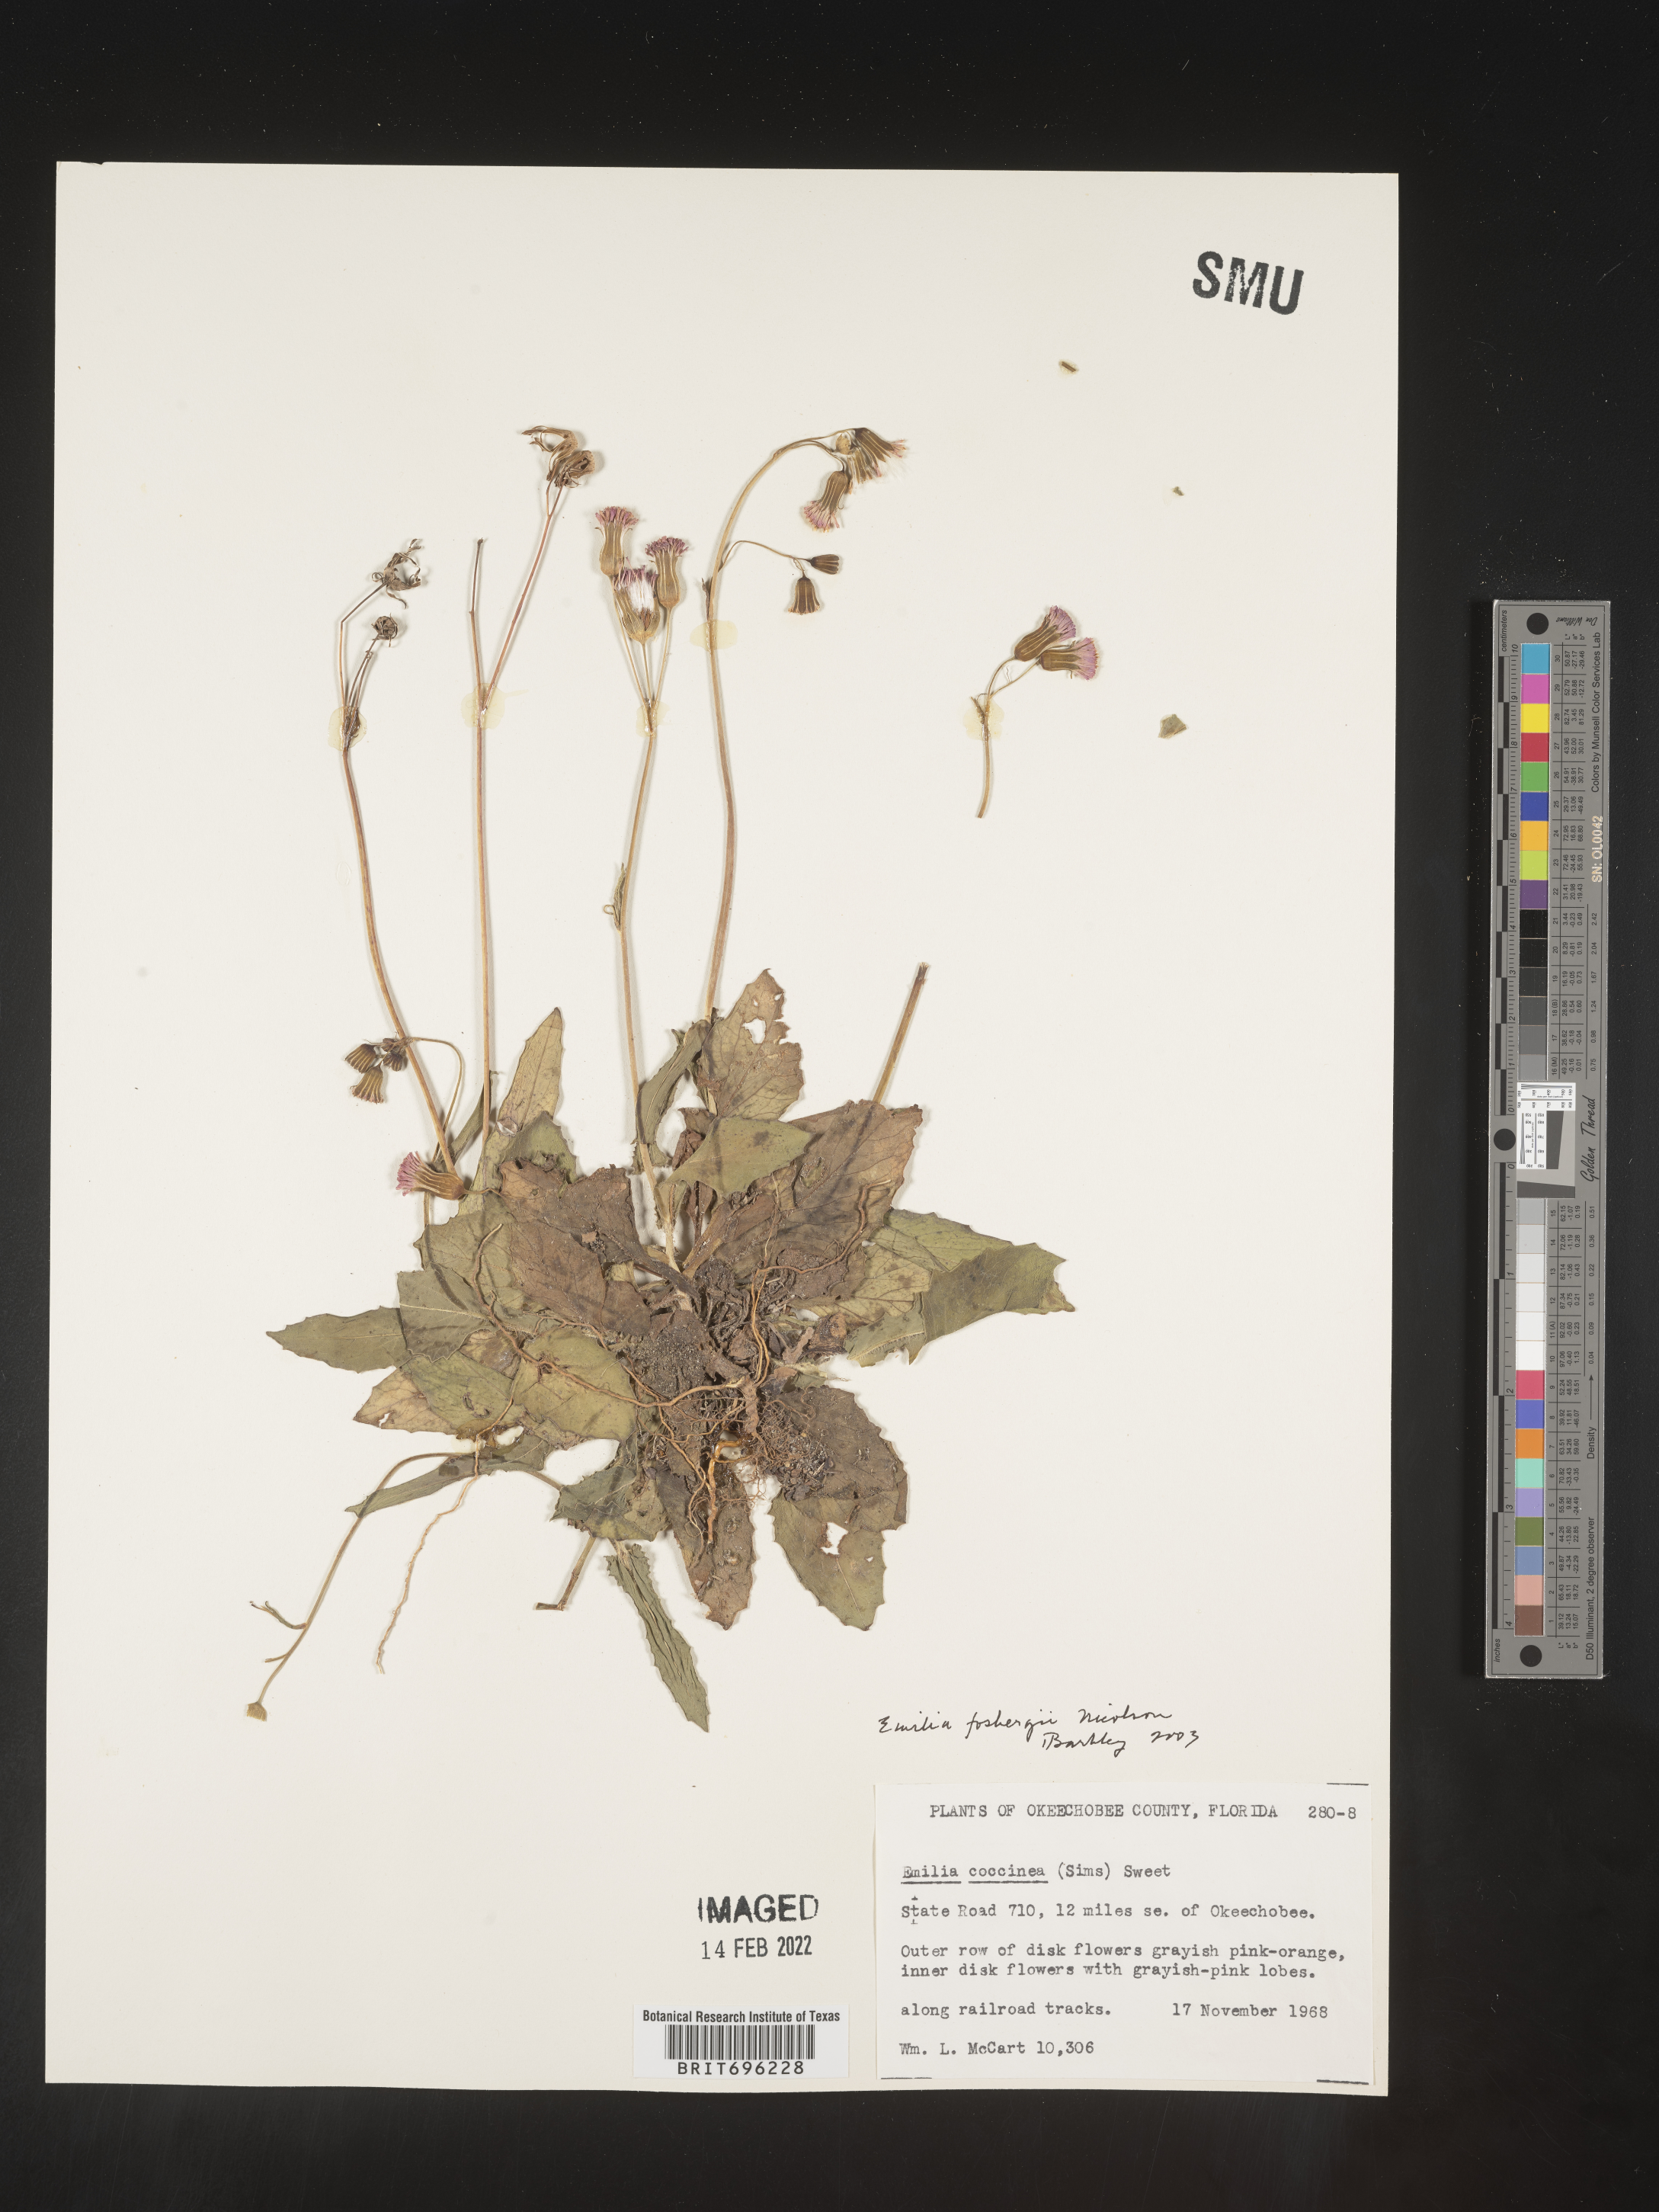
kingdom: Plantae
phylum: Tracheophyta
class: Magnoliopsida
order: Asterales
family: Asteraceae
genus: Emilia
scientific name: Emilia fosbergii
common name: Florida tasselflower
